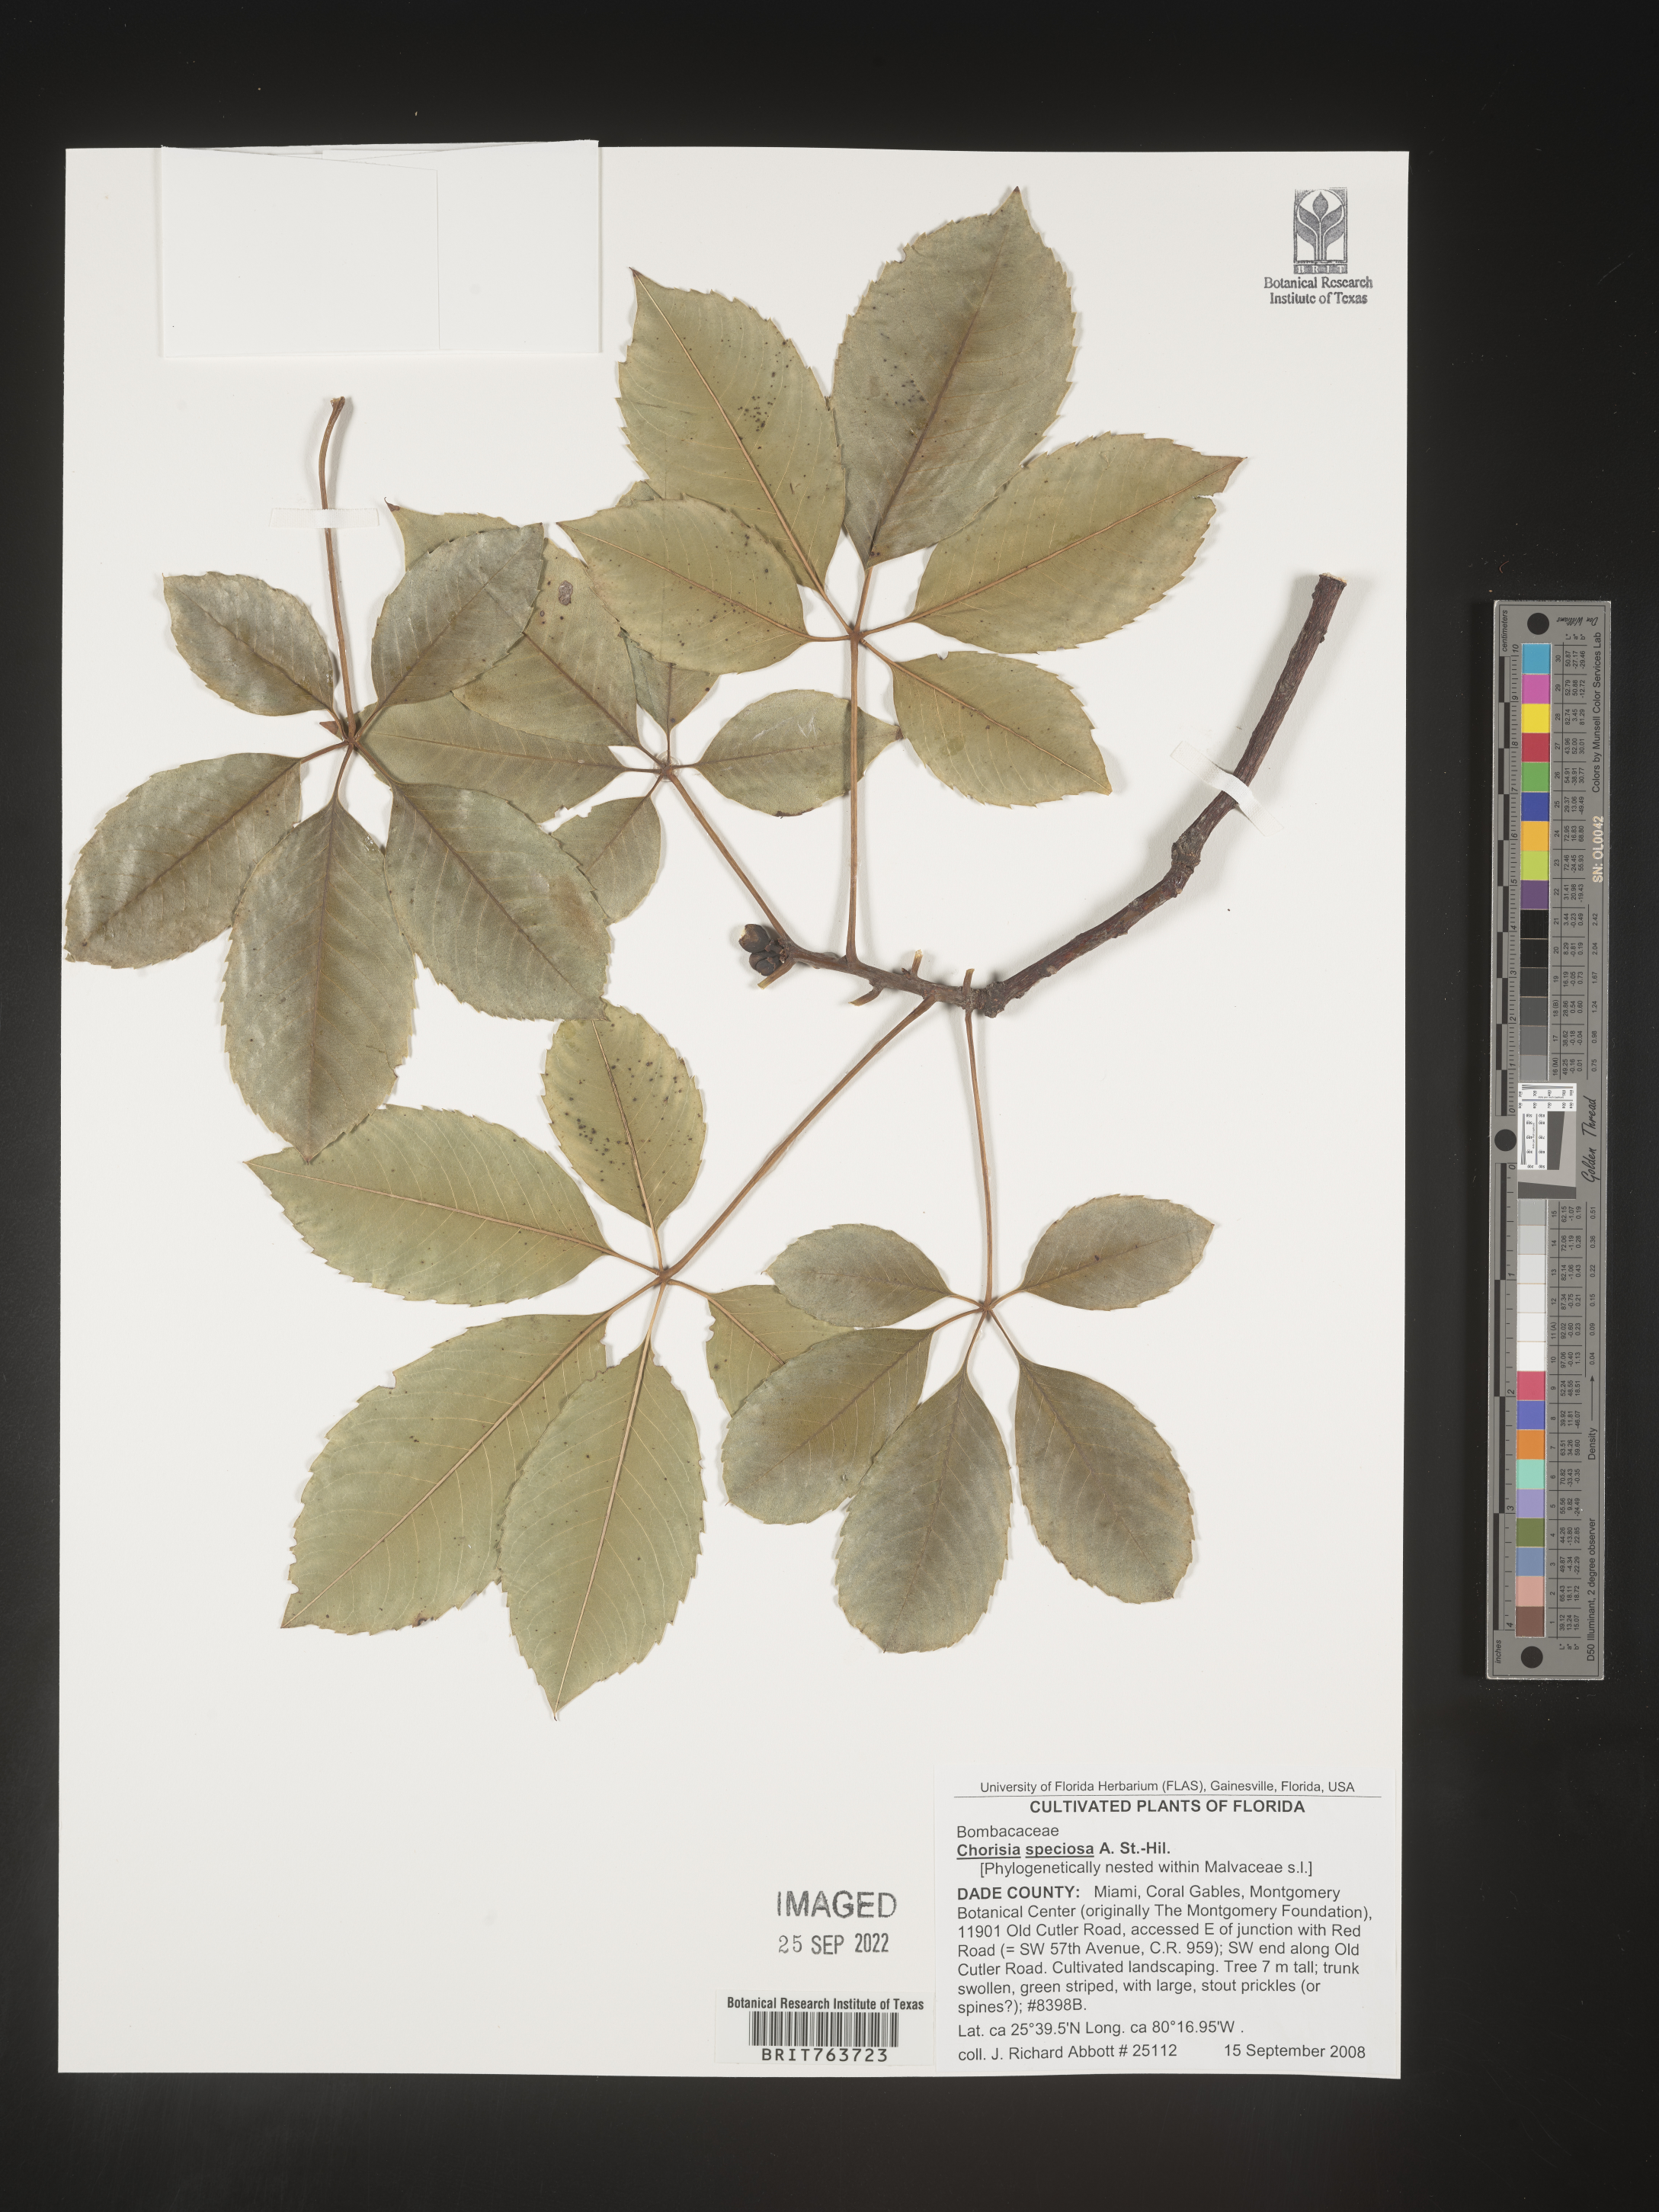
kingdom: Animalia
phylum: Arthropoda
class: Insecta
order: Blattodea
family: Ectobiidae
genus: Chorisia
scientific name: Chorisia
